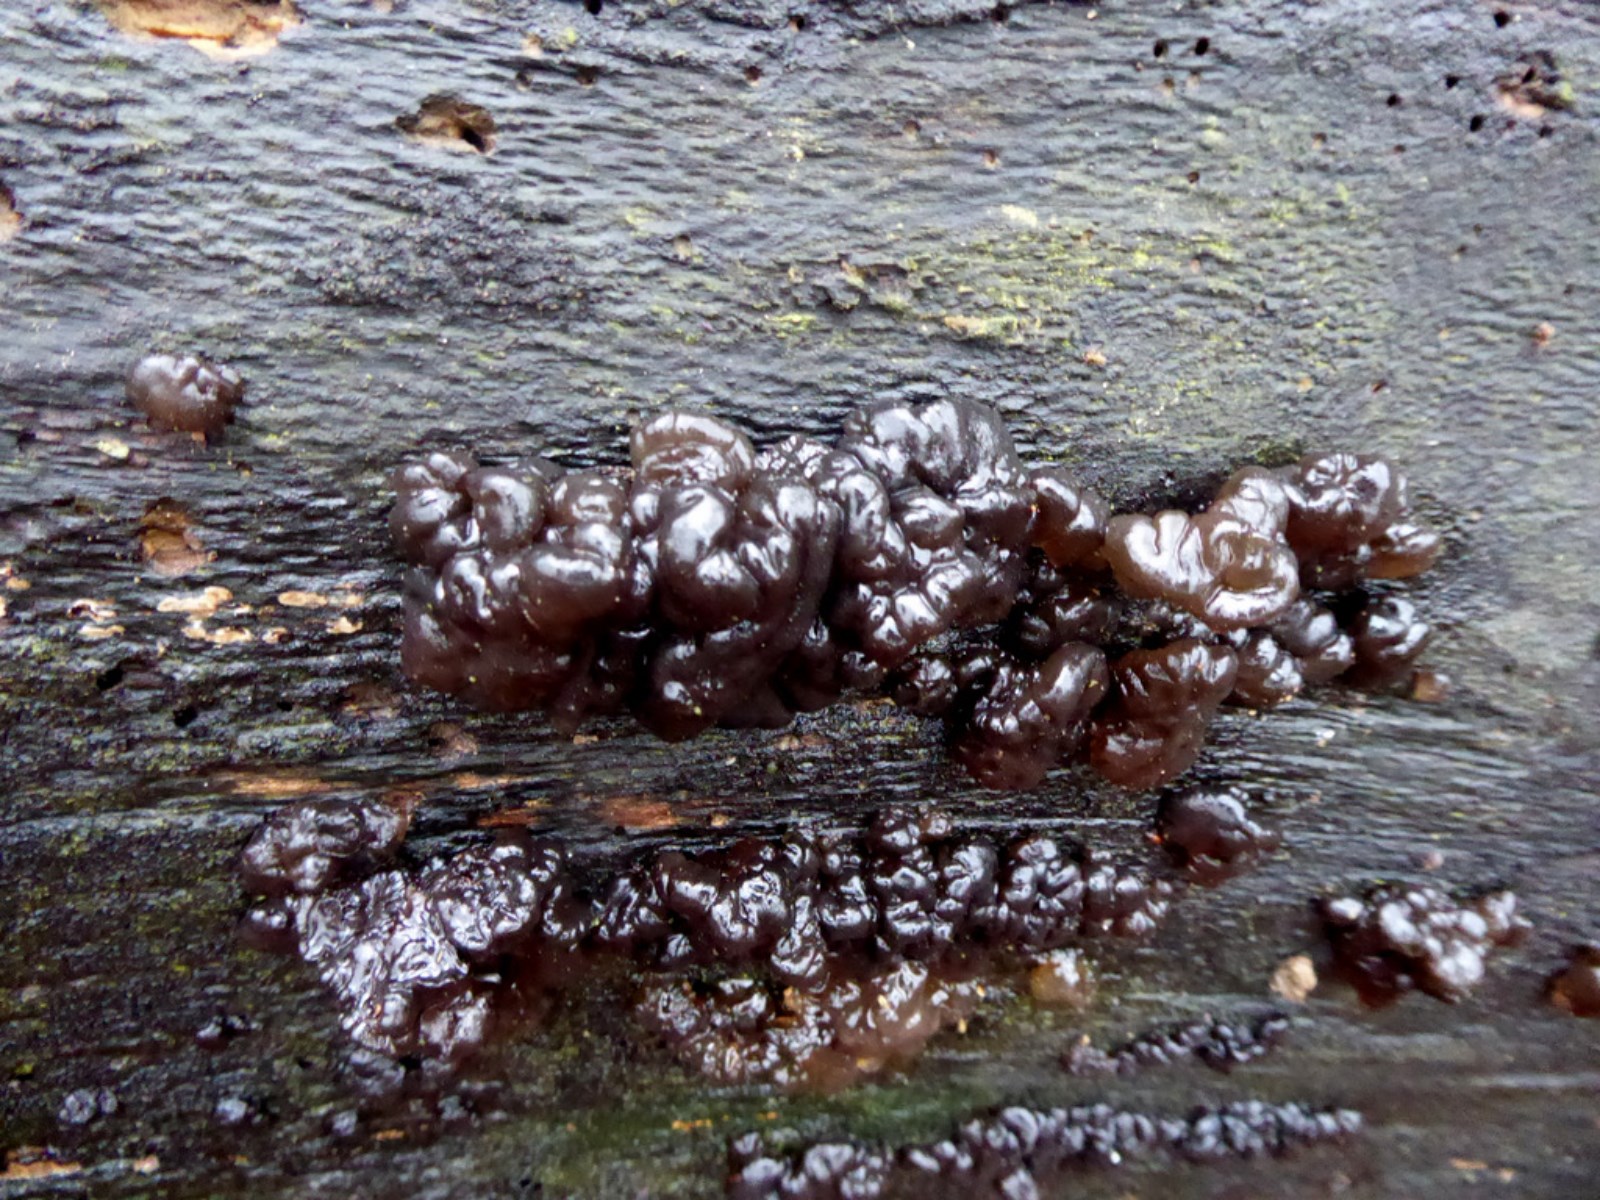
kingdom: Fungi
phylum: Basidiomycota
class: Agaricomycetes
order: Auriculariales
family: Auriculariaceae
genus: Exidia
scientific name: Exidia nigricans
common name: almindelig bævretop
